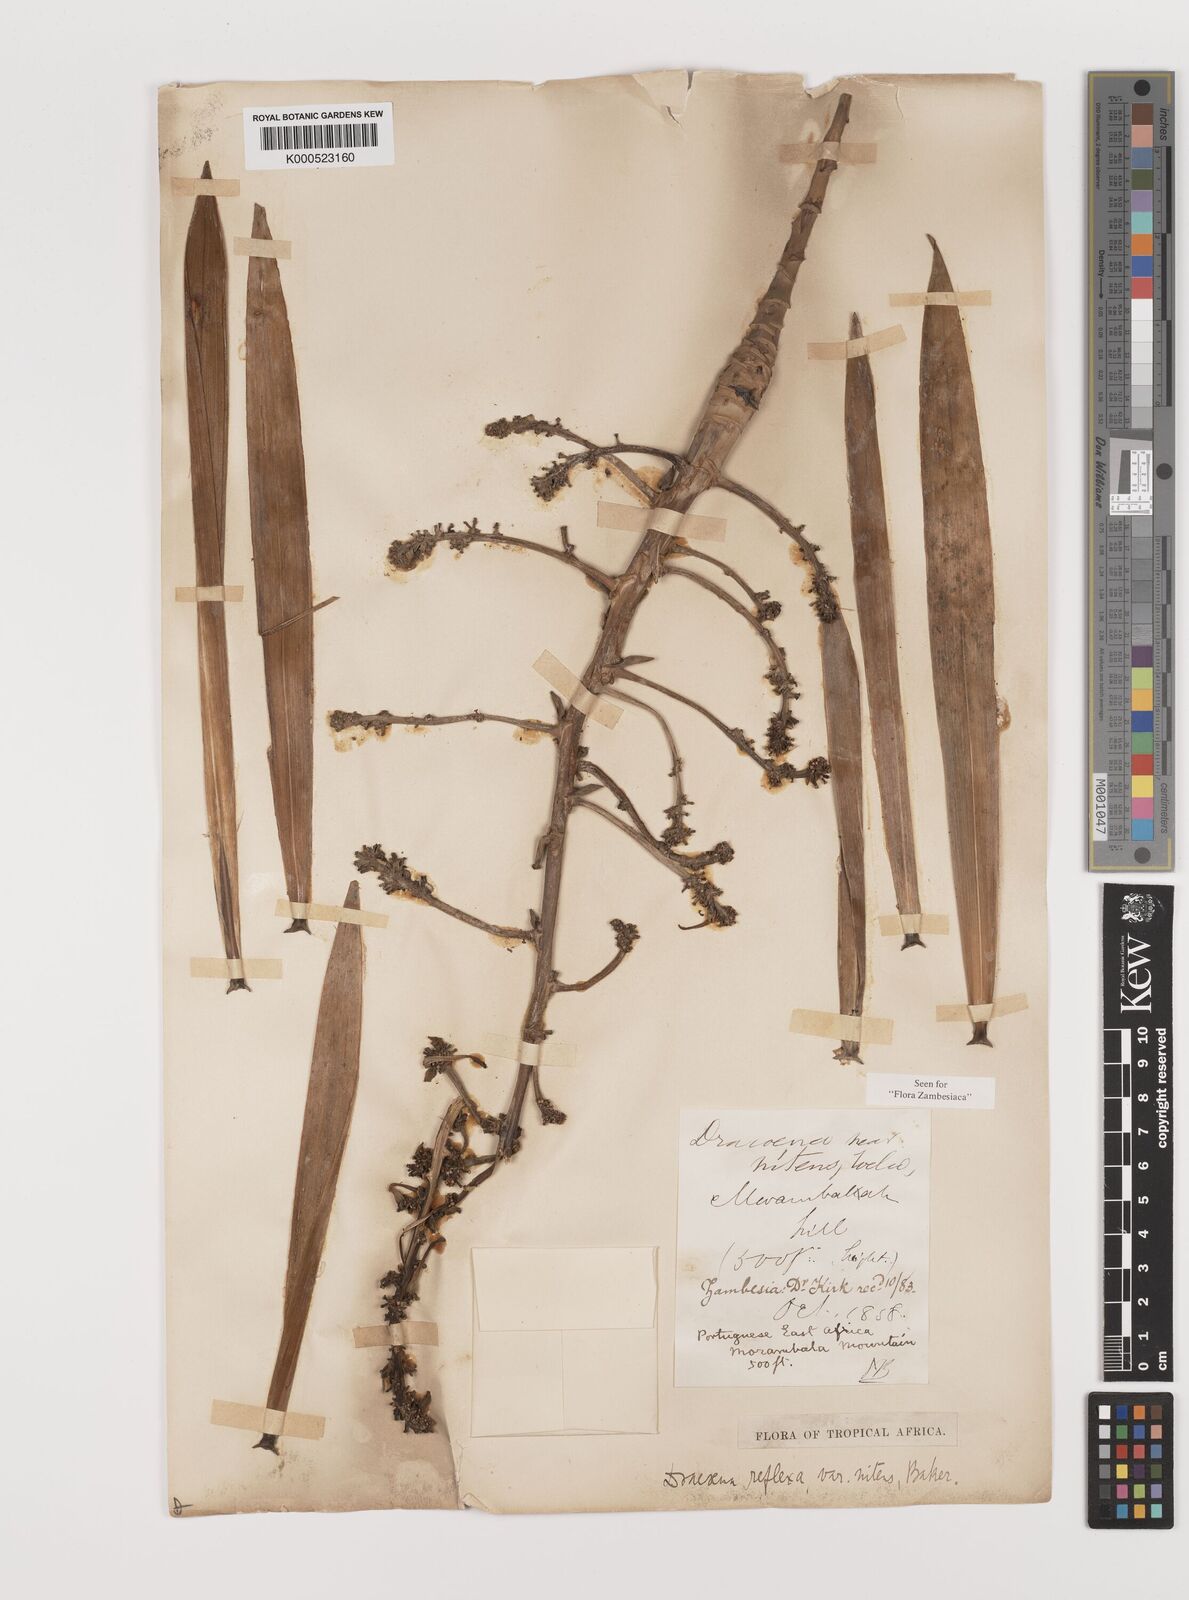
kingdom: Plantae
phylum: Tracheophyta
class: Liliopsida
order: Asparagales
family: Asparagaceae
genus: Dracaena
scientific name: Dracaena usambarensis
